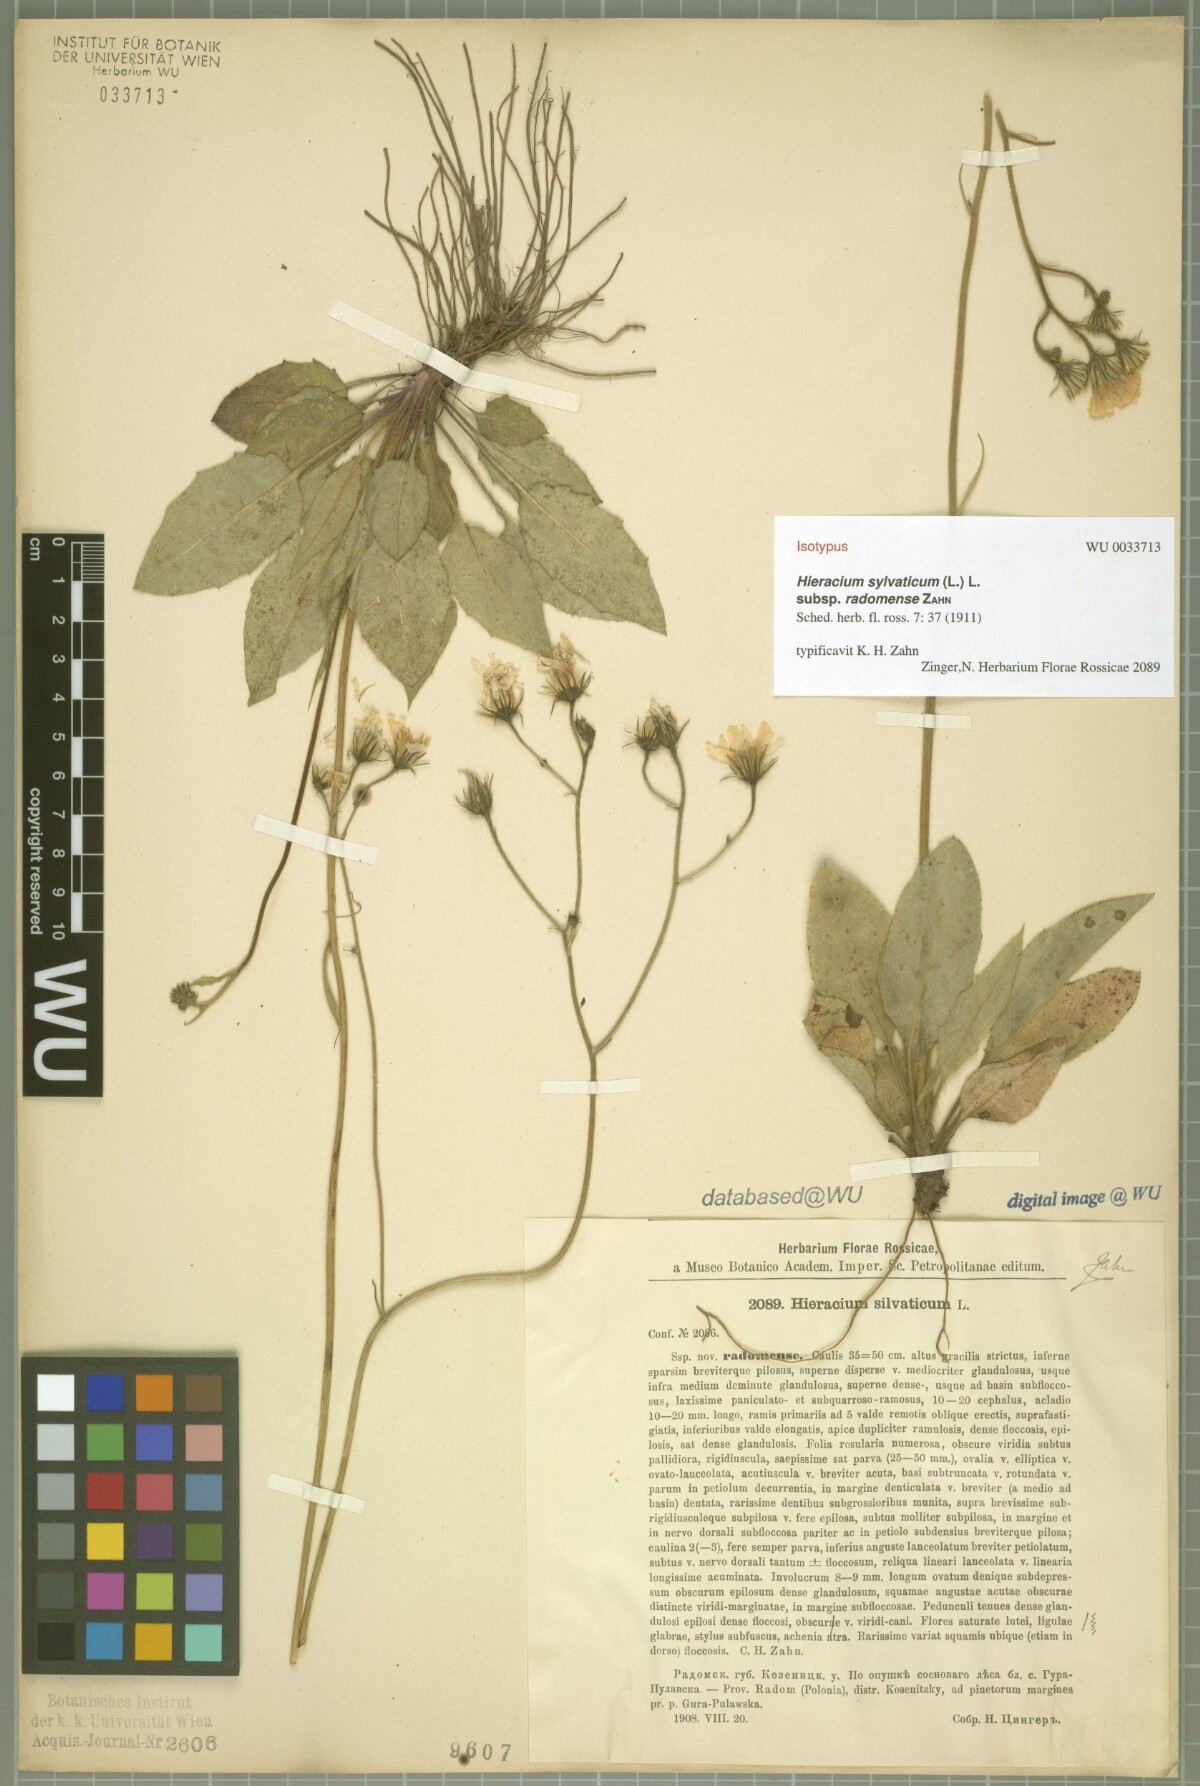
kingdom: Plantae
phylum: Tracheophyta
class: Magnoliopsida
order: Asterales
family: Asteraceae
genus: Hieracium
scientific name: Hieracium sylvaticum
